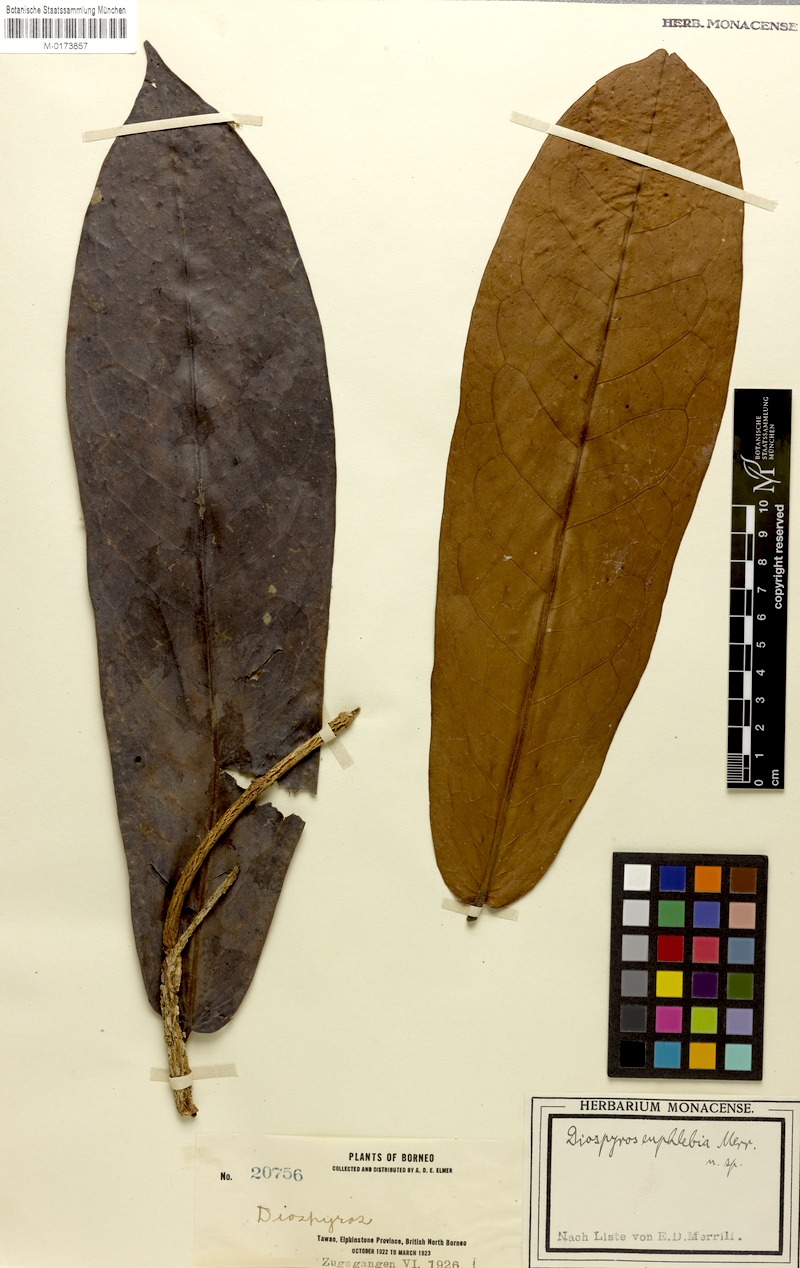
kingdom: Plantae
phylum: Tracheophyta
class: Magnoliopsida
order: Ericales
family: Ebenaceae
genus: Diospyros
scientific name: Diospyros euphlebia
